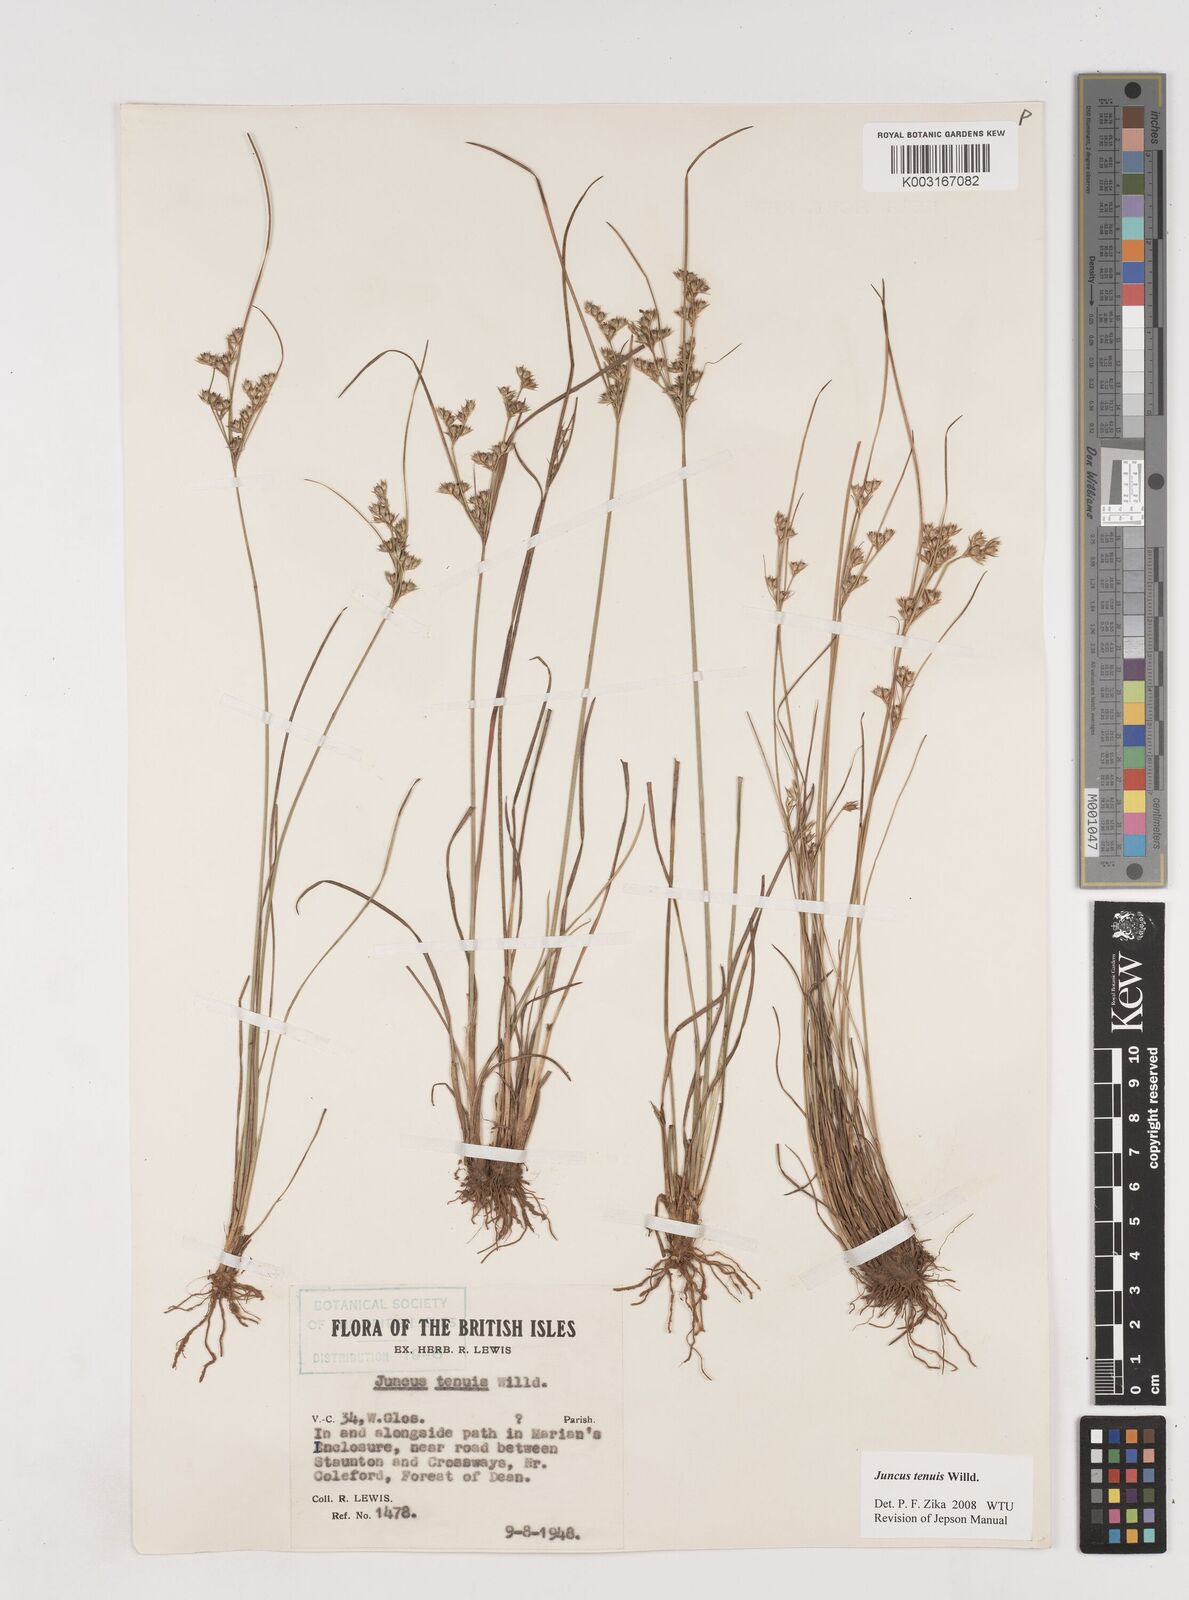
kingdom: Plantae
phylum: Tracheophyta
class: Liliopsida
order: Poales
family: Juncaceae
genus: Juncus
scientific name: Juncus tenuis
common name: Slender rush
